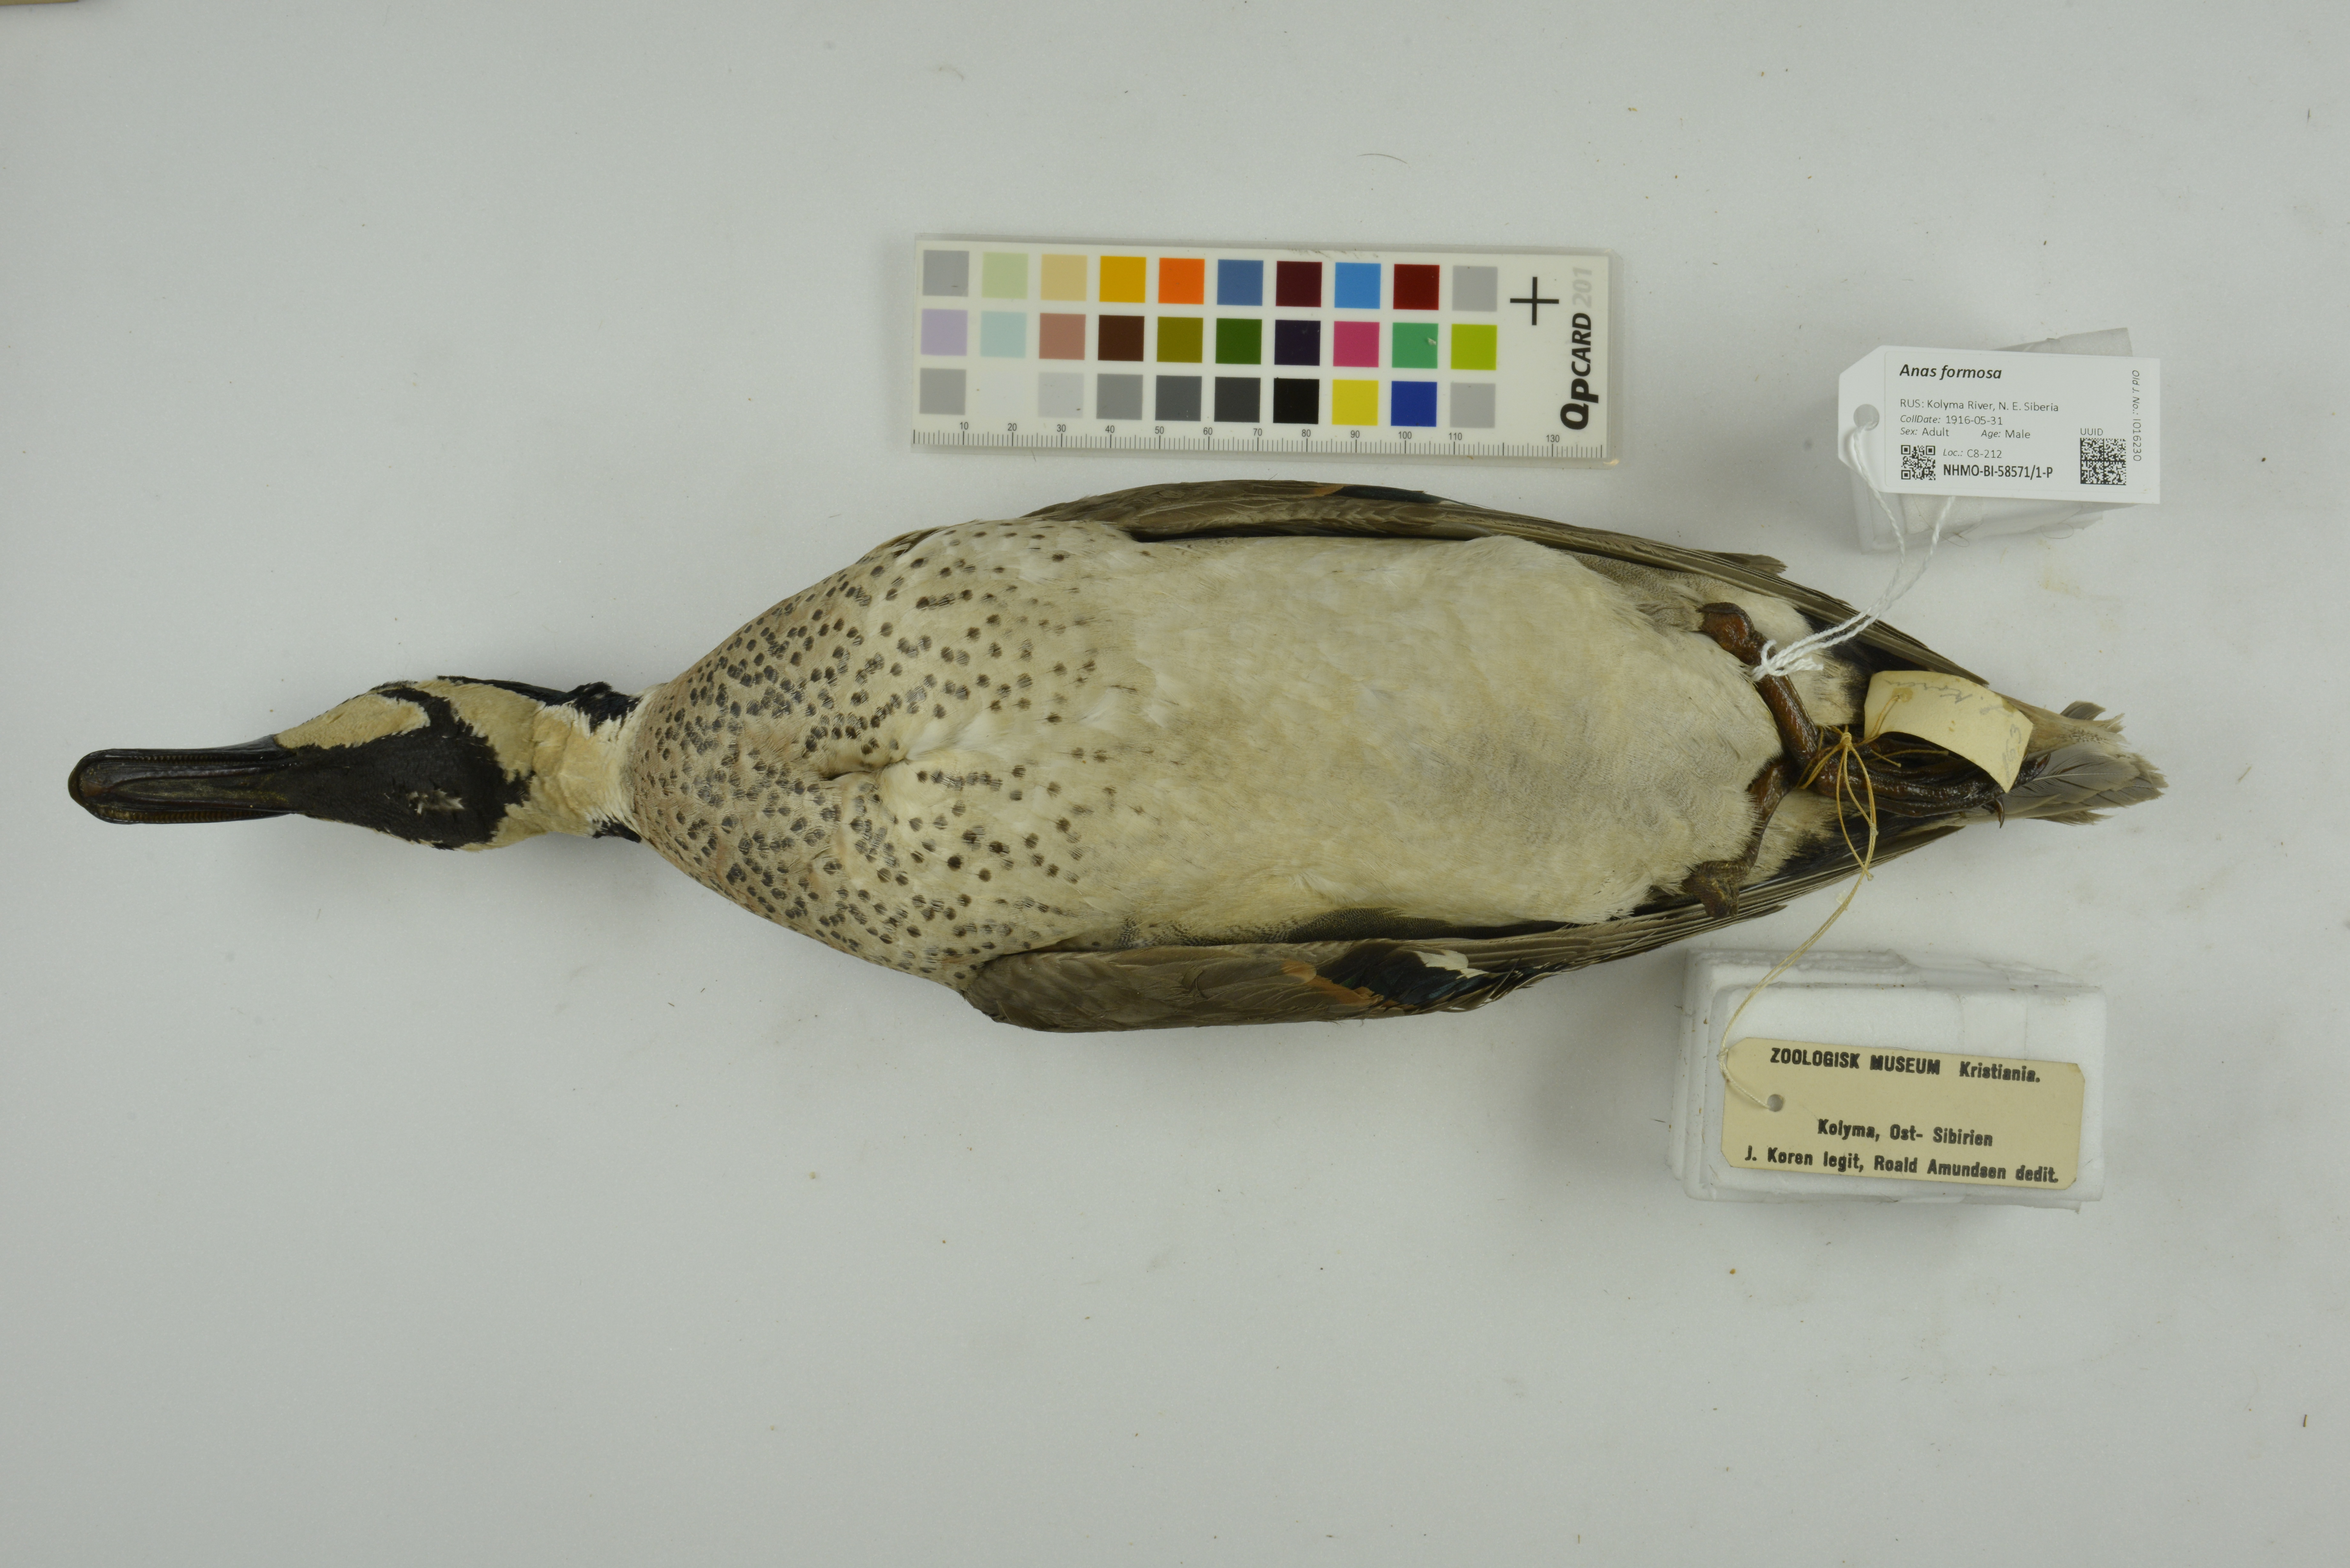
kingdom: Animalia
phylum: Chordata
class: Aves
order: Anseriformes
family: Anatidae
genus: Sibirionetta
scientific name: Sibirionetta formosa
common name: Baikal teal
